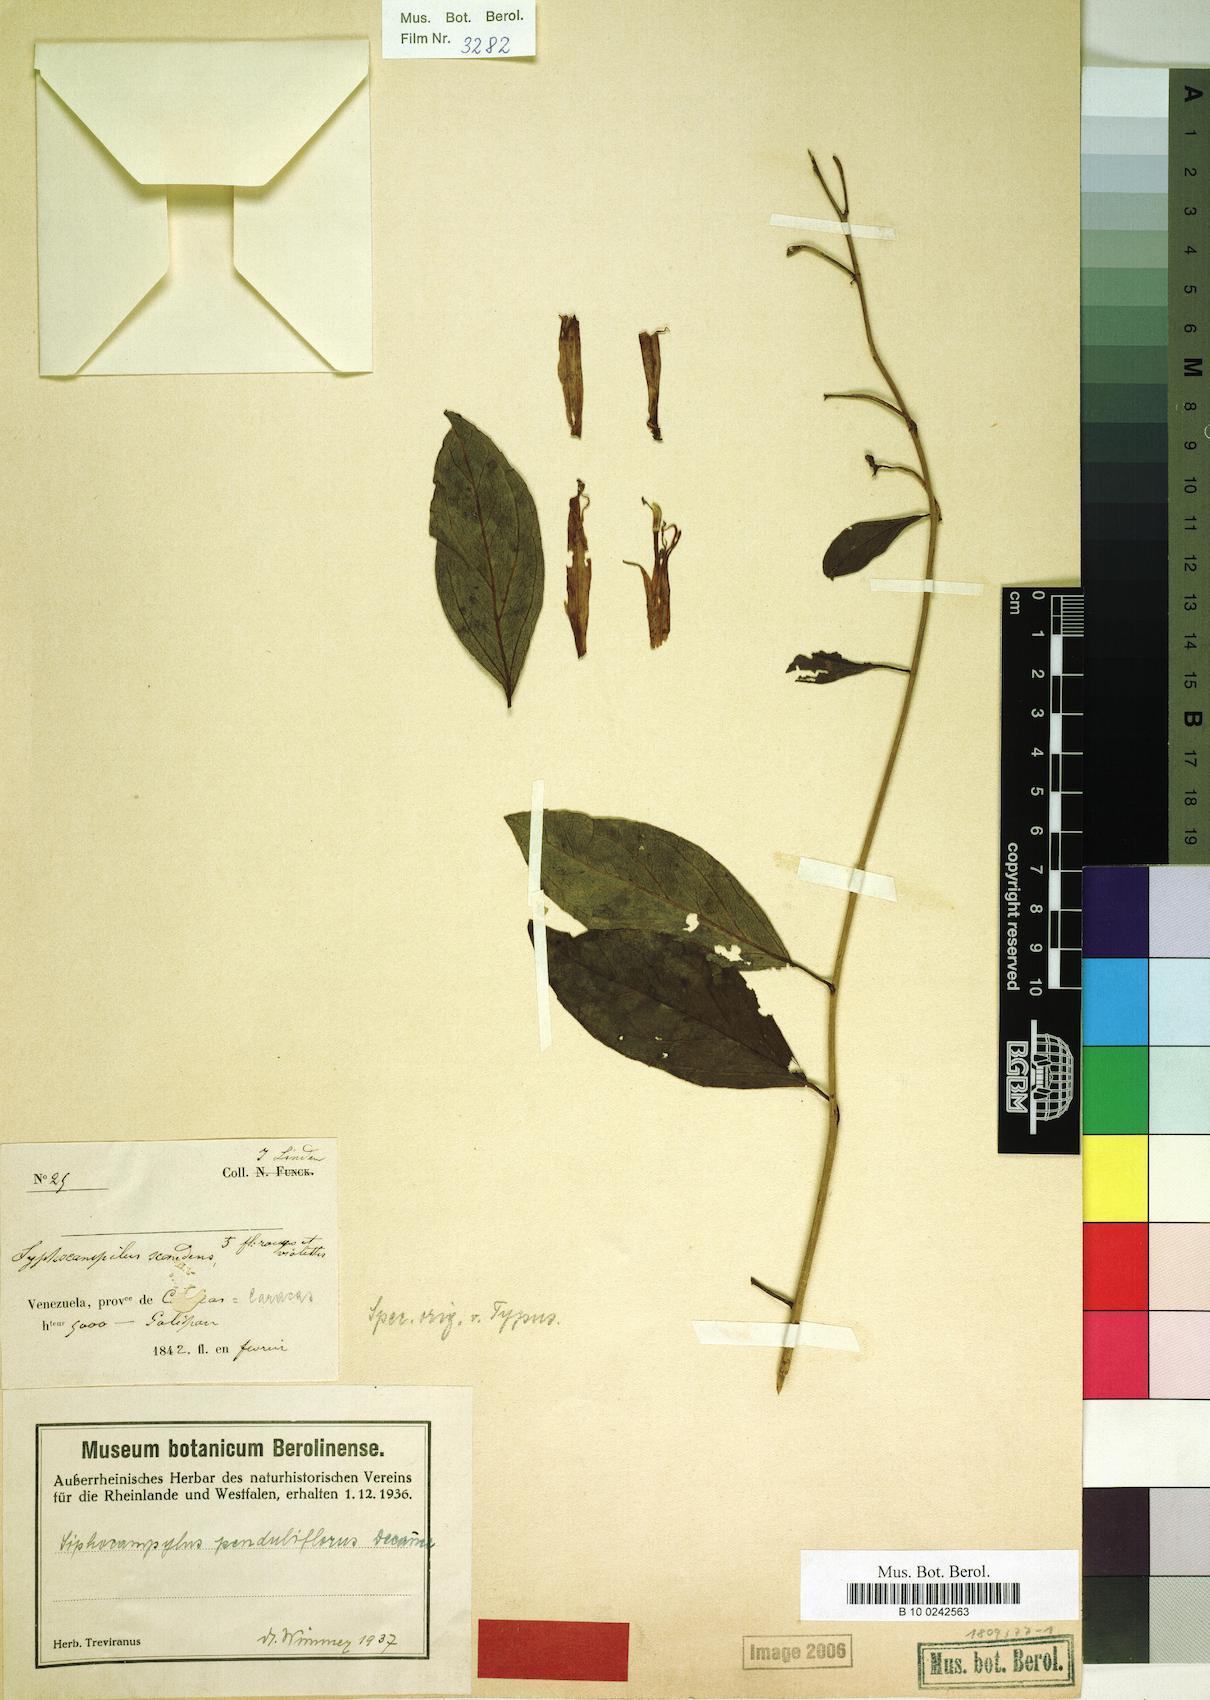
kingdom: Plantae
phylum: Tracheophyta
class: Magnoliopsida
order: Asterales
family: Campanulaceae
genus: Siphocampylus
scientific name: Siphocampylus penduliflorus
